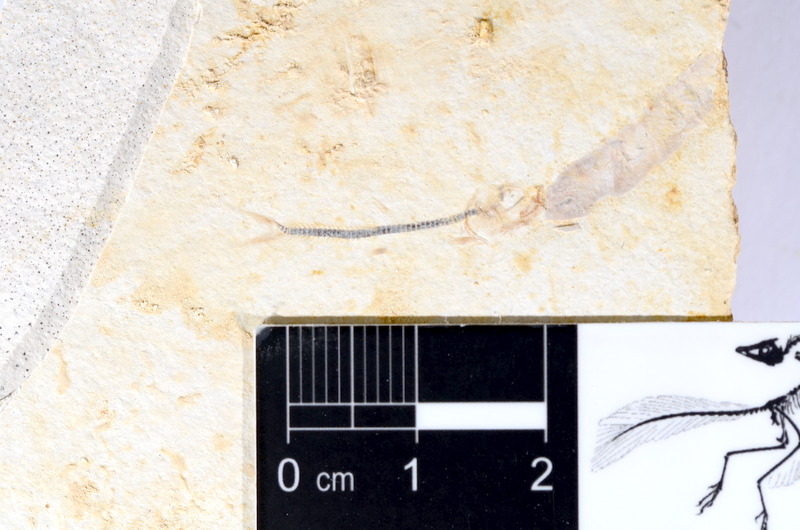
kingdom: Animalia
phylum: Chordata
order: Salmoniformes
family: Orthogonikleithridae
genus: Orthogonikleithrus
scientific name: Orthogonikleithrus hoelli
